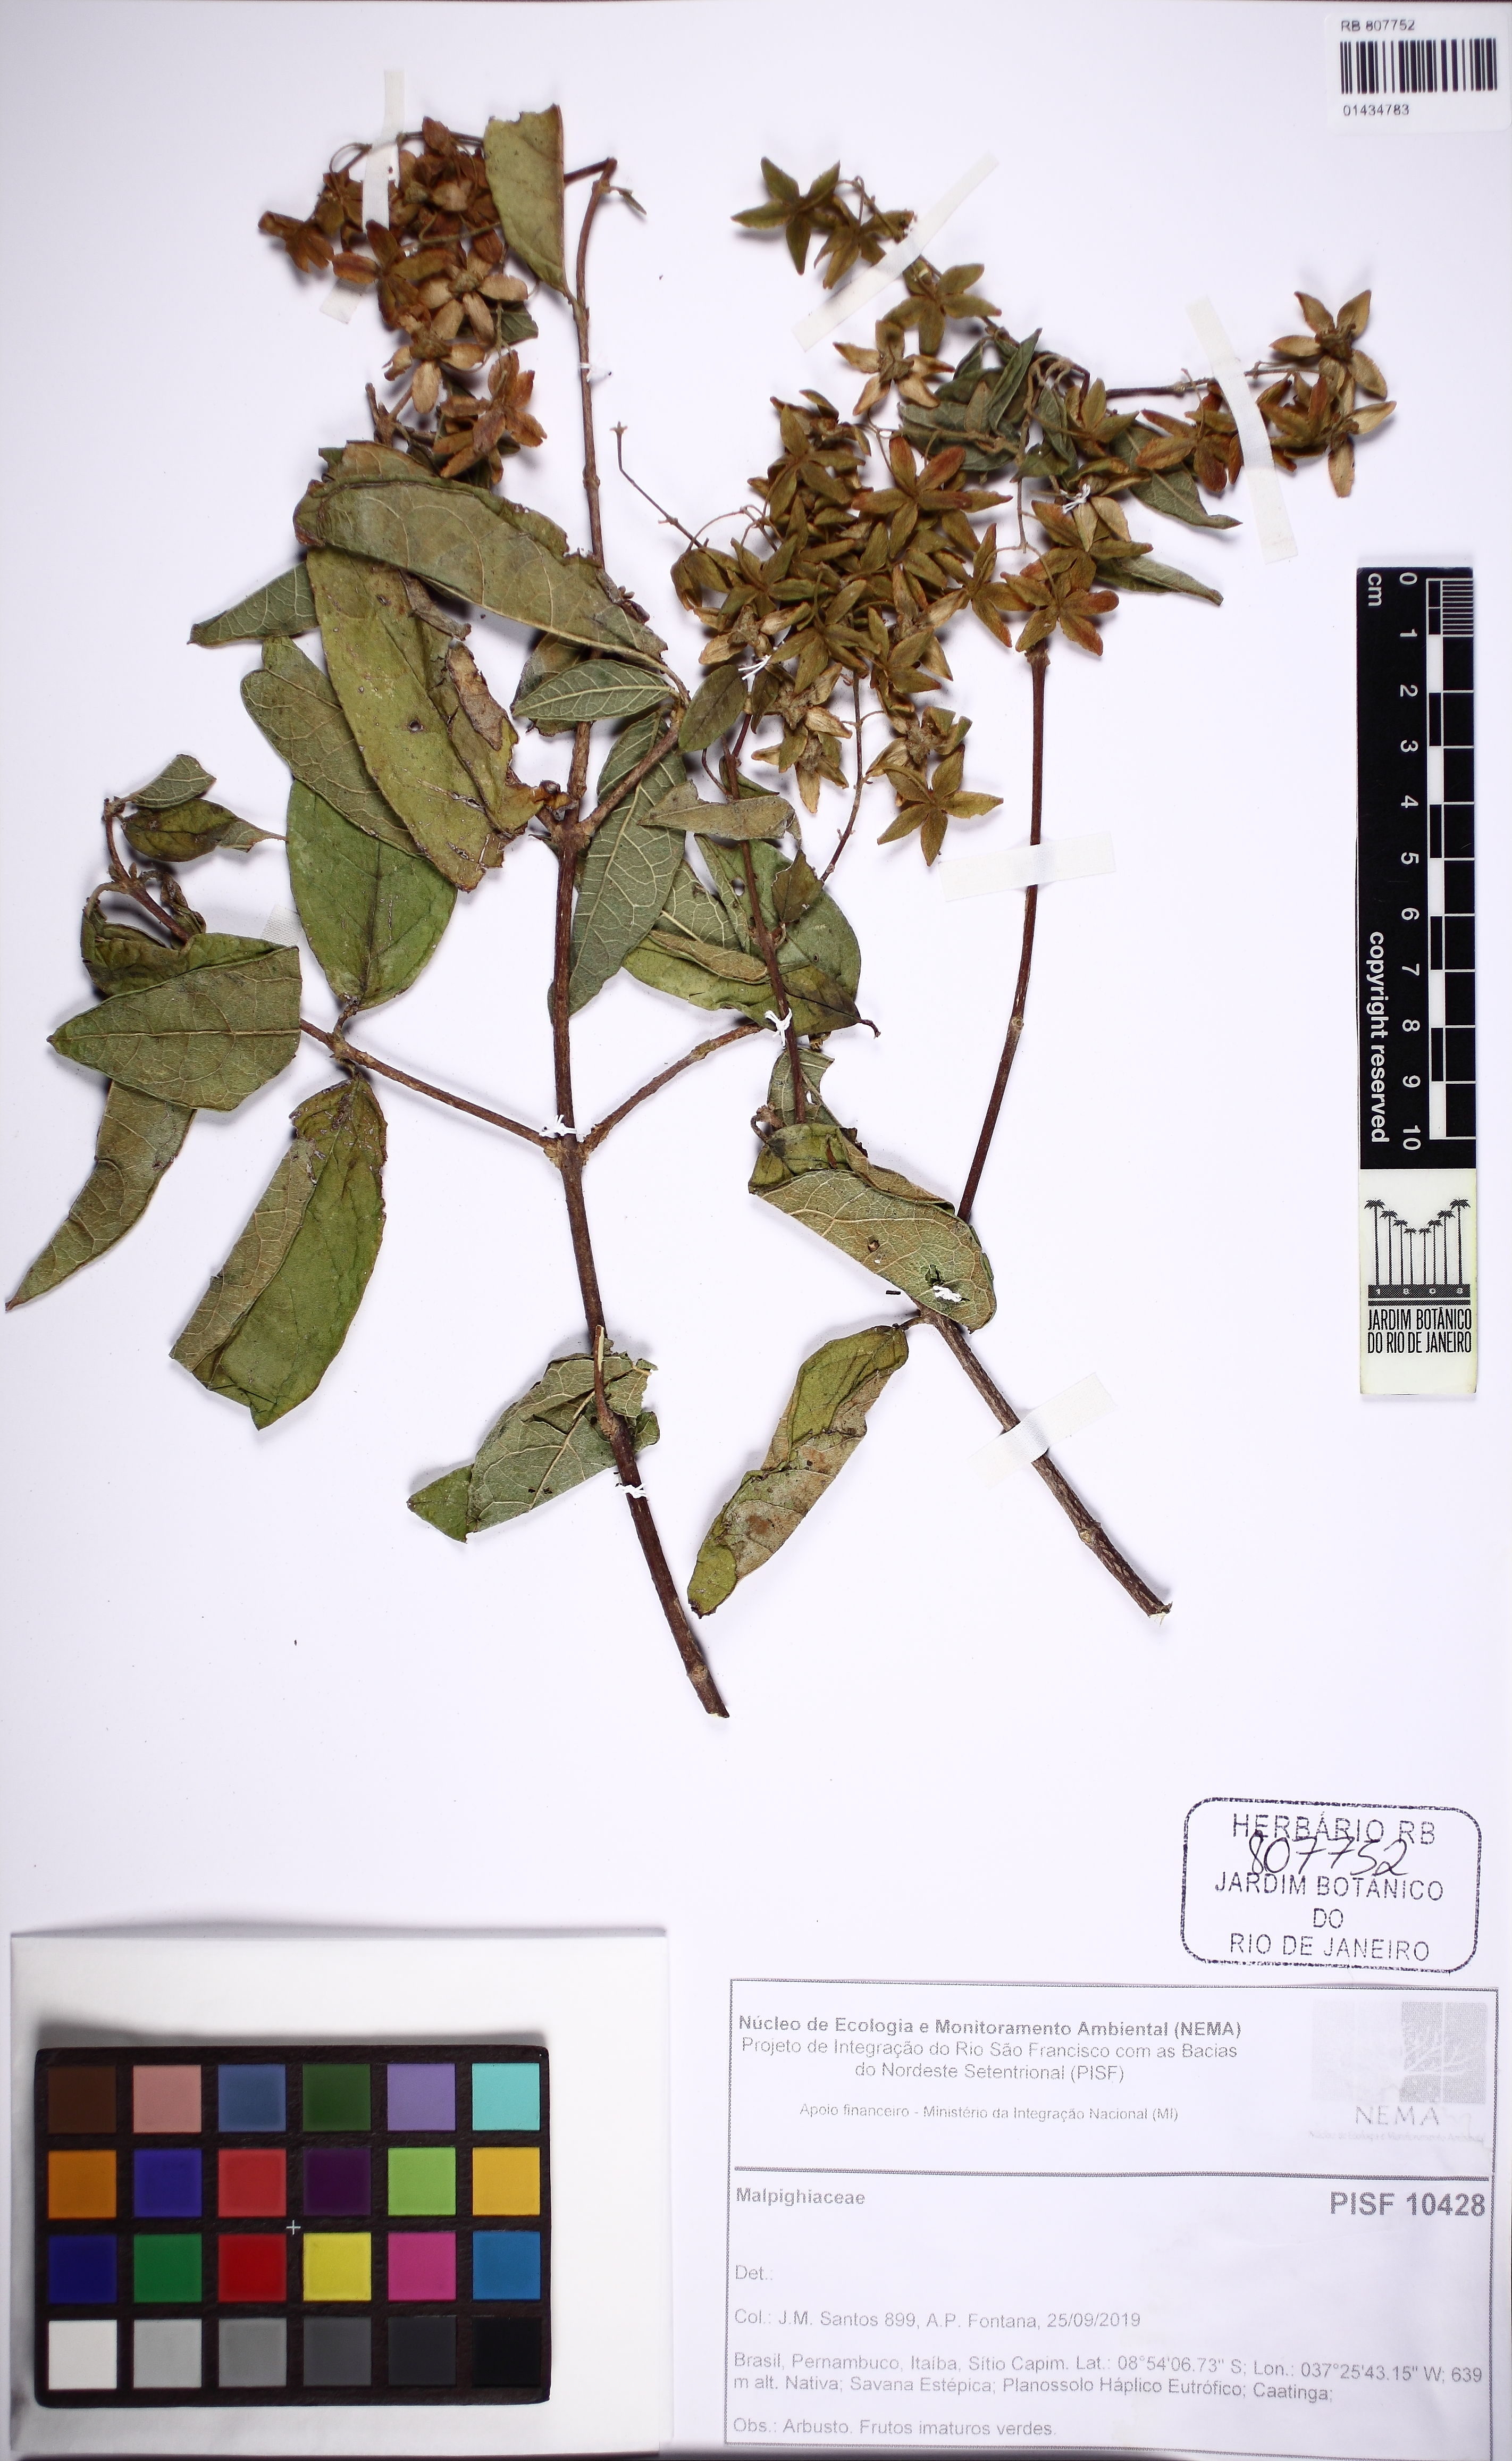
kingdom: Plantae
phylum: Tracheophyta
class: Magnoliopsida
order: Malpighiales
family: Malpighiaceae
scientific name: Malpighiaceae
